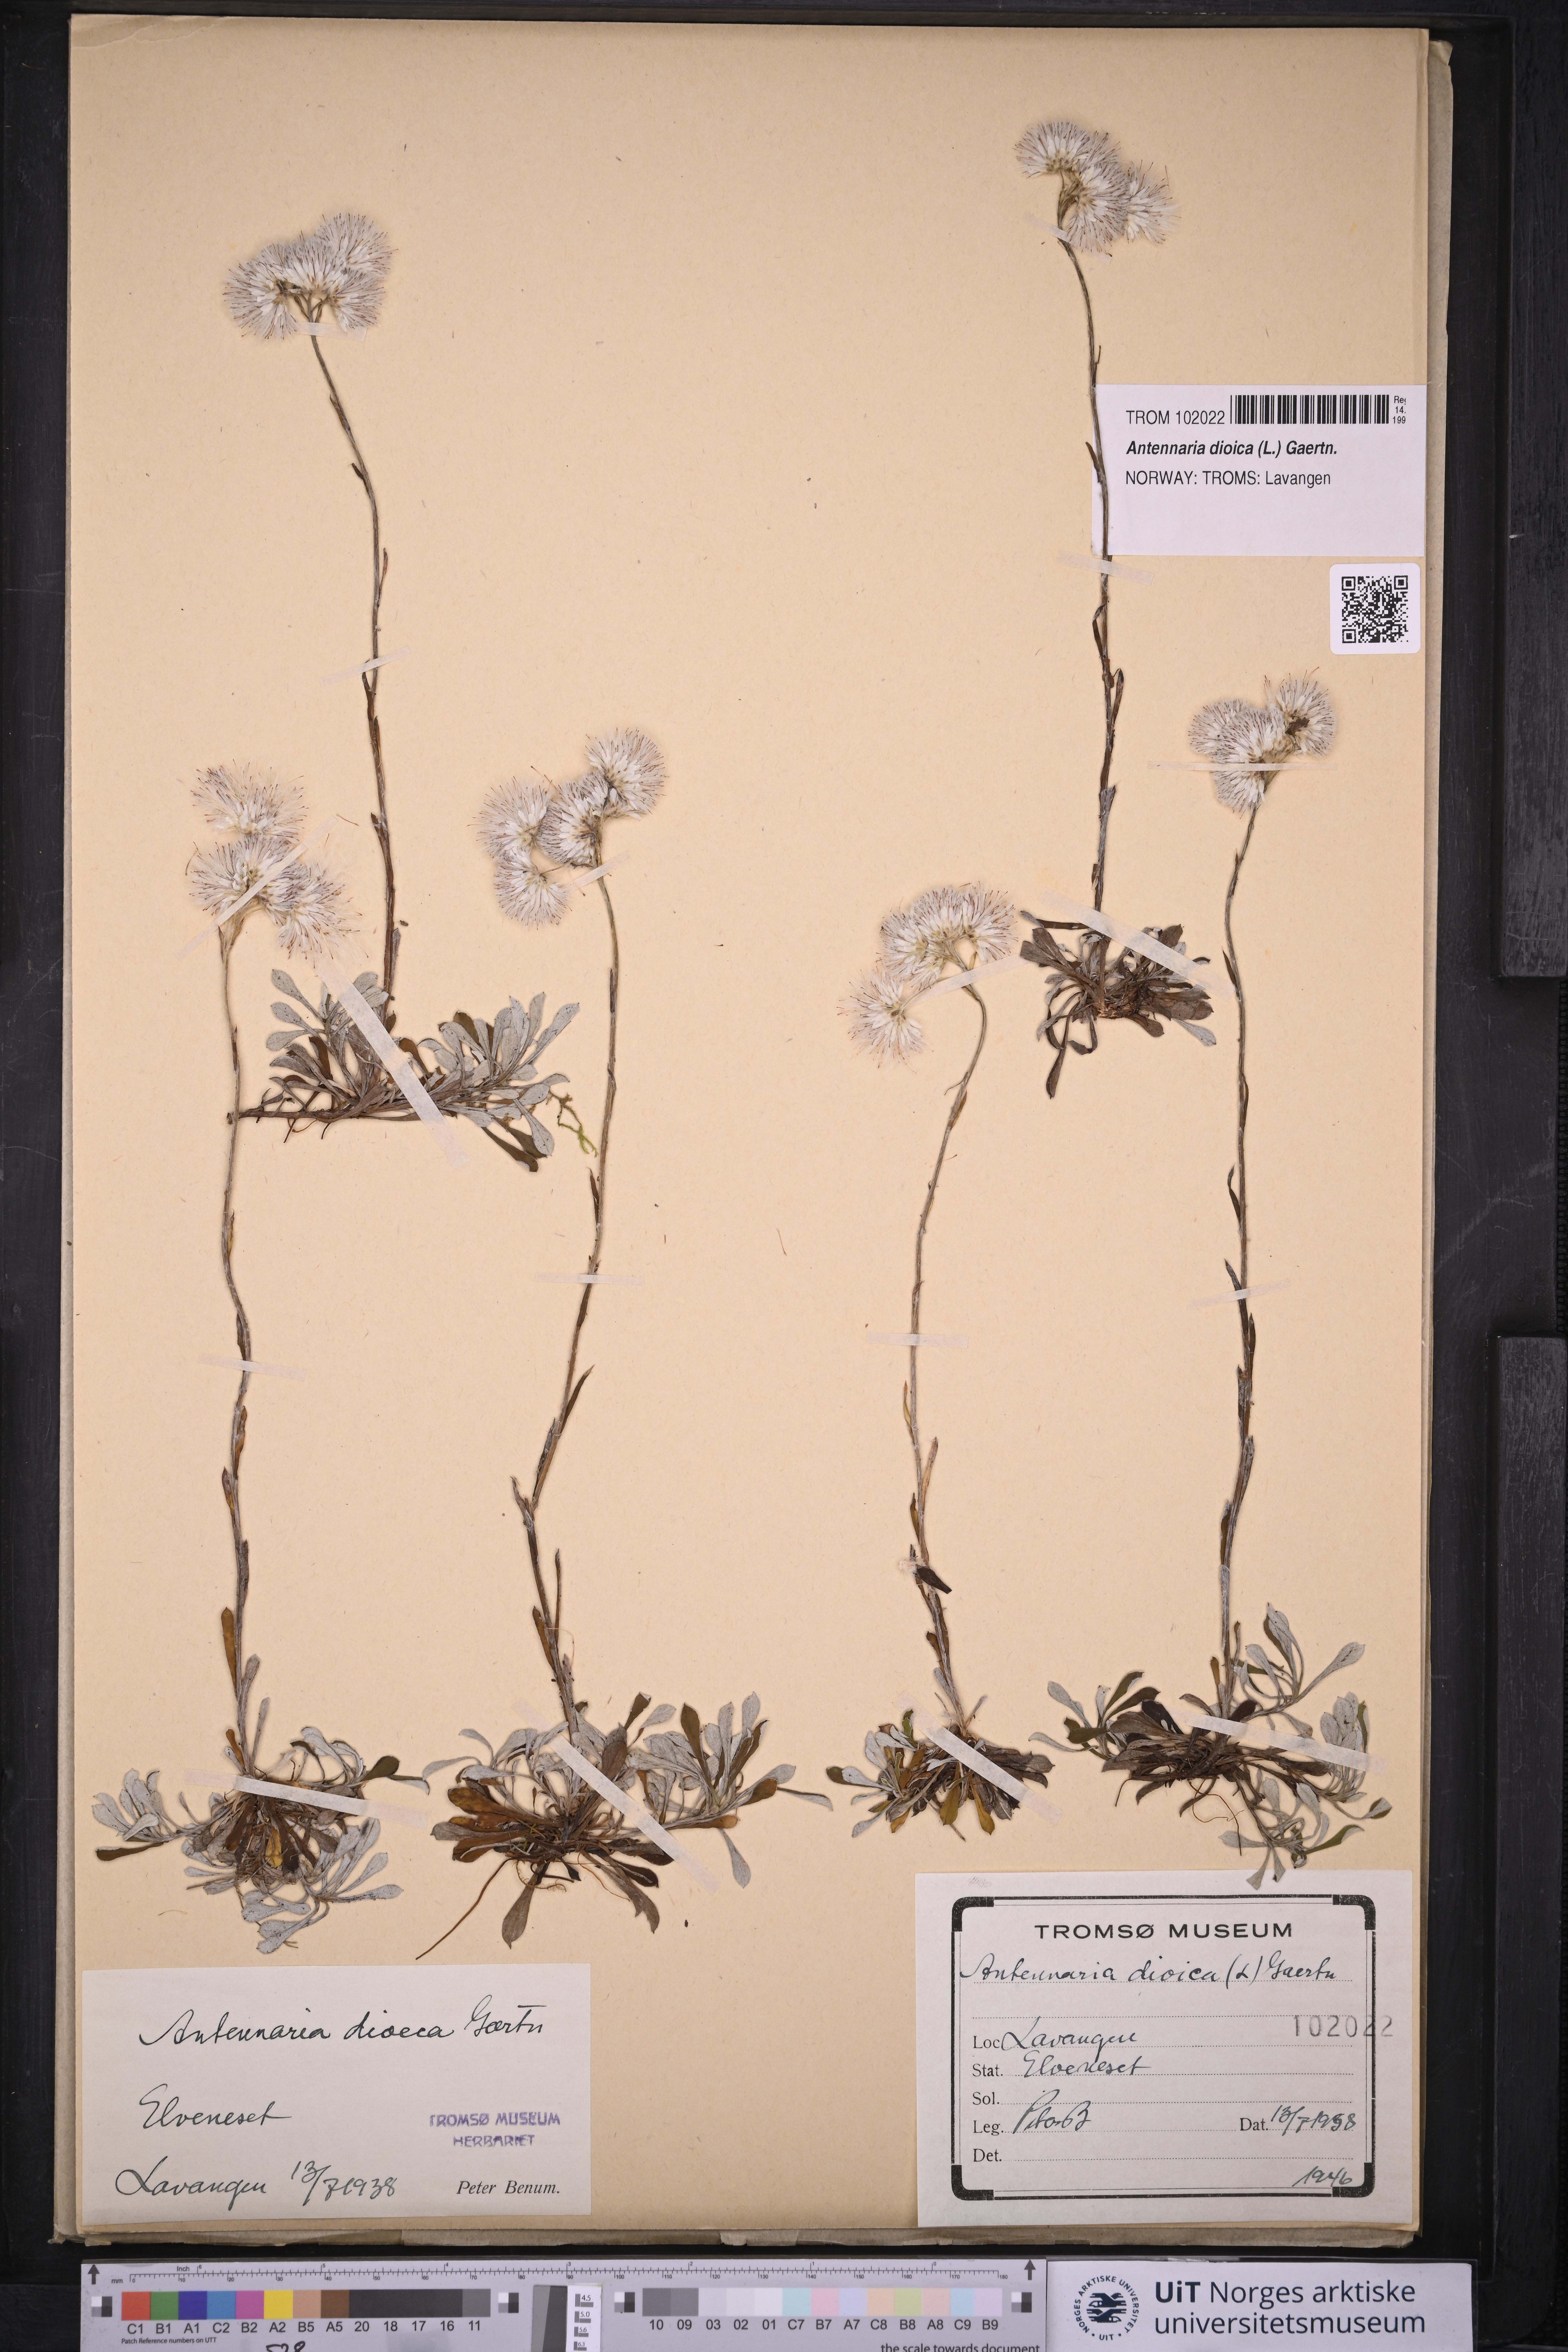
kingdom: Plantae
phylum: Tracheophyta
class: Magnoliopsida
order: Asterales
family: Asteraceae
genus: Antennaria
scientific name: Antennaria dioica
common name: Mountain everlasting
